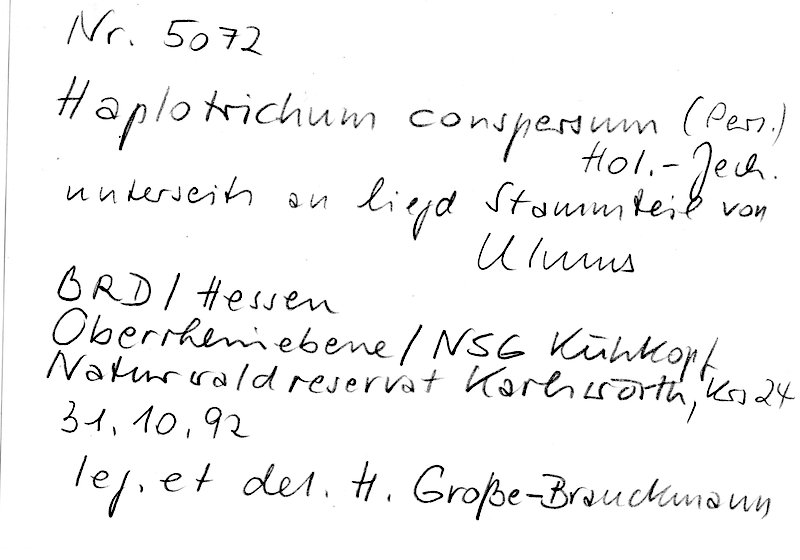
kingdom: Plantae
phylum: Tracheophyta
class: Magnoliopsida
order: Rosales
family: Ulmaceae
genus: Ulmus
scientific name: Ulmus
